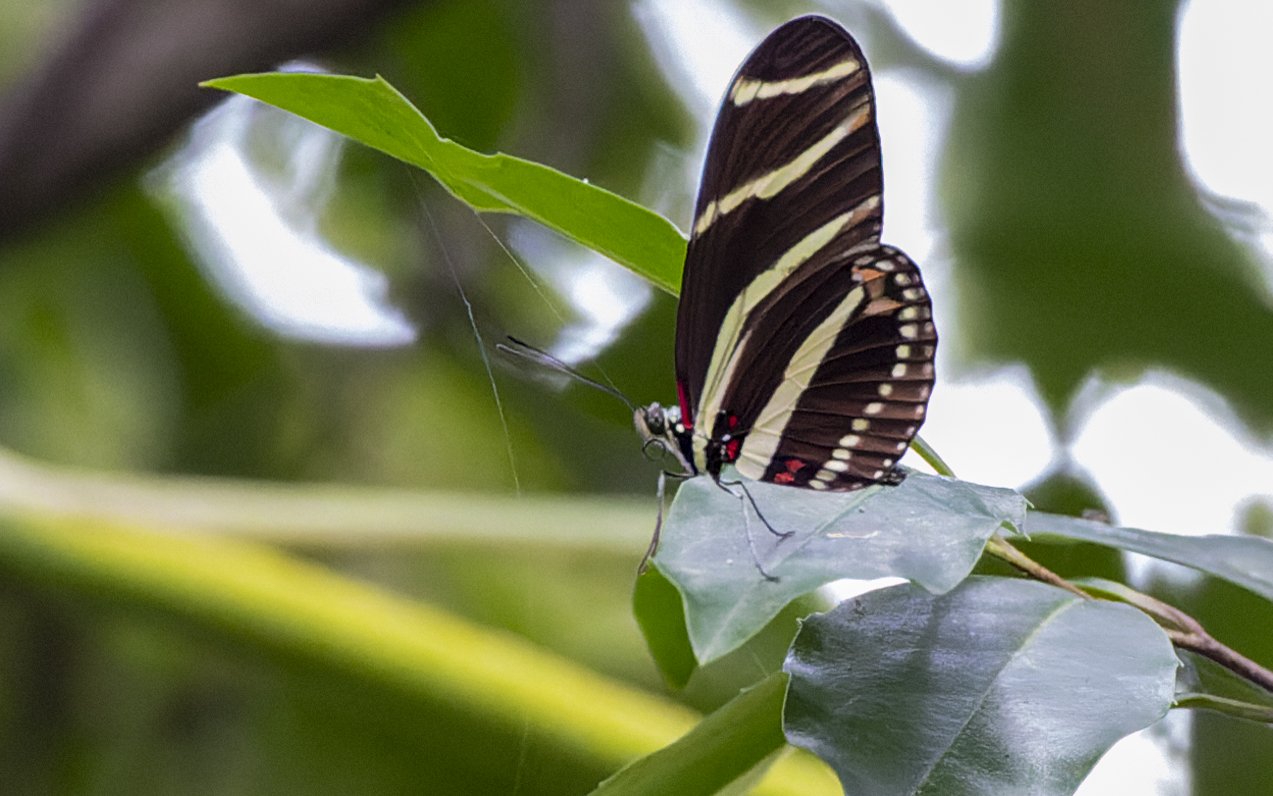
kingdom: Animalia
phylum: Arthropoda
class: Insecta
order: Lepidoptera
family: Nymphalidae
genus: Heliconius
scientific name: Heliconius charithonia
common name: Zebra Longwing
